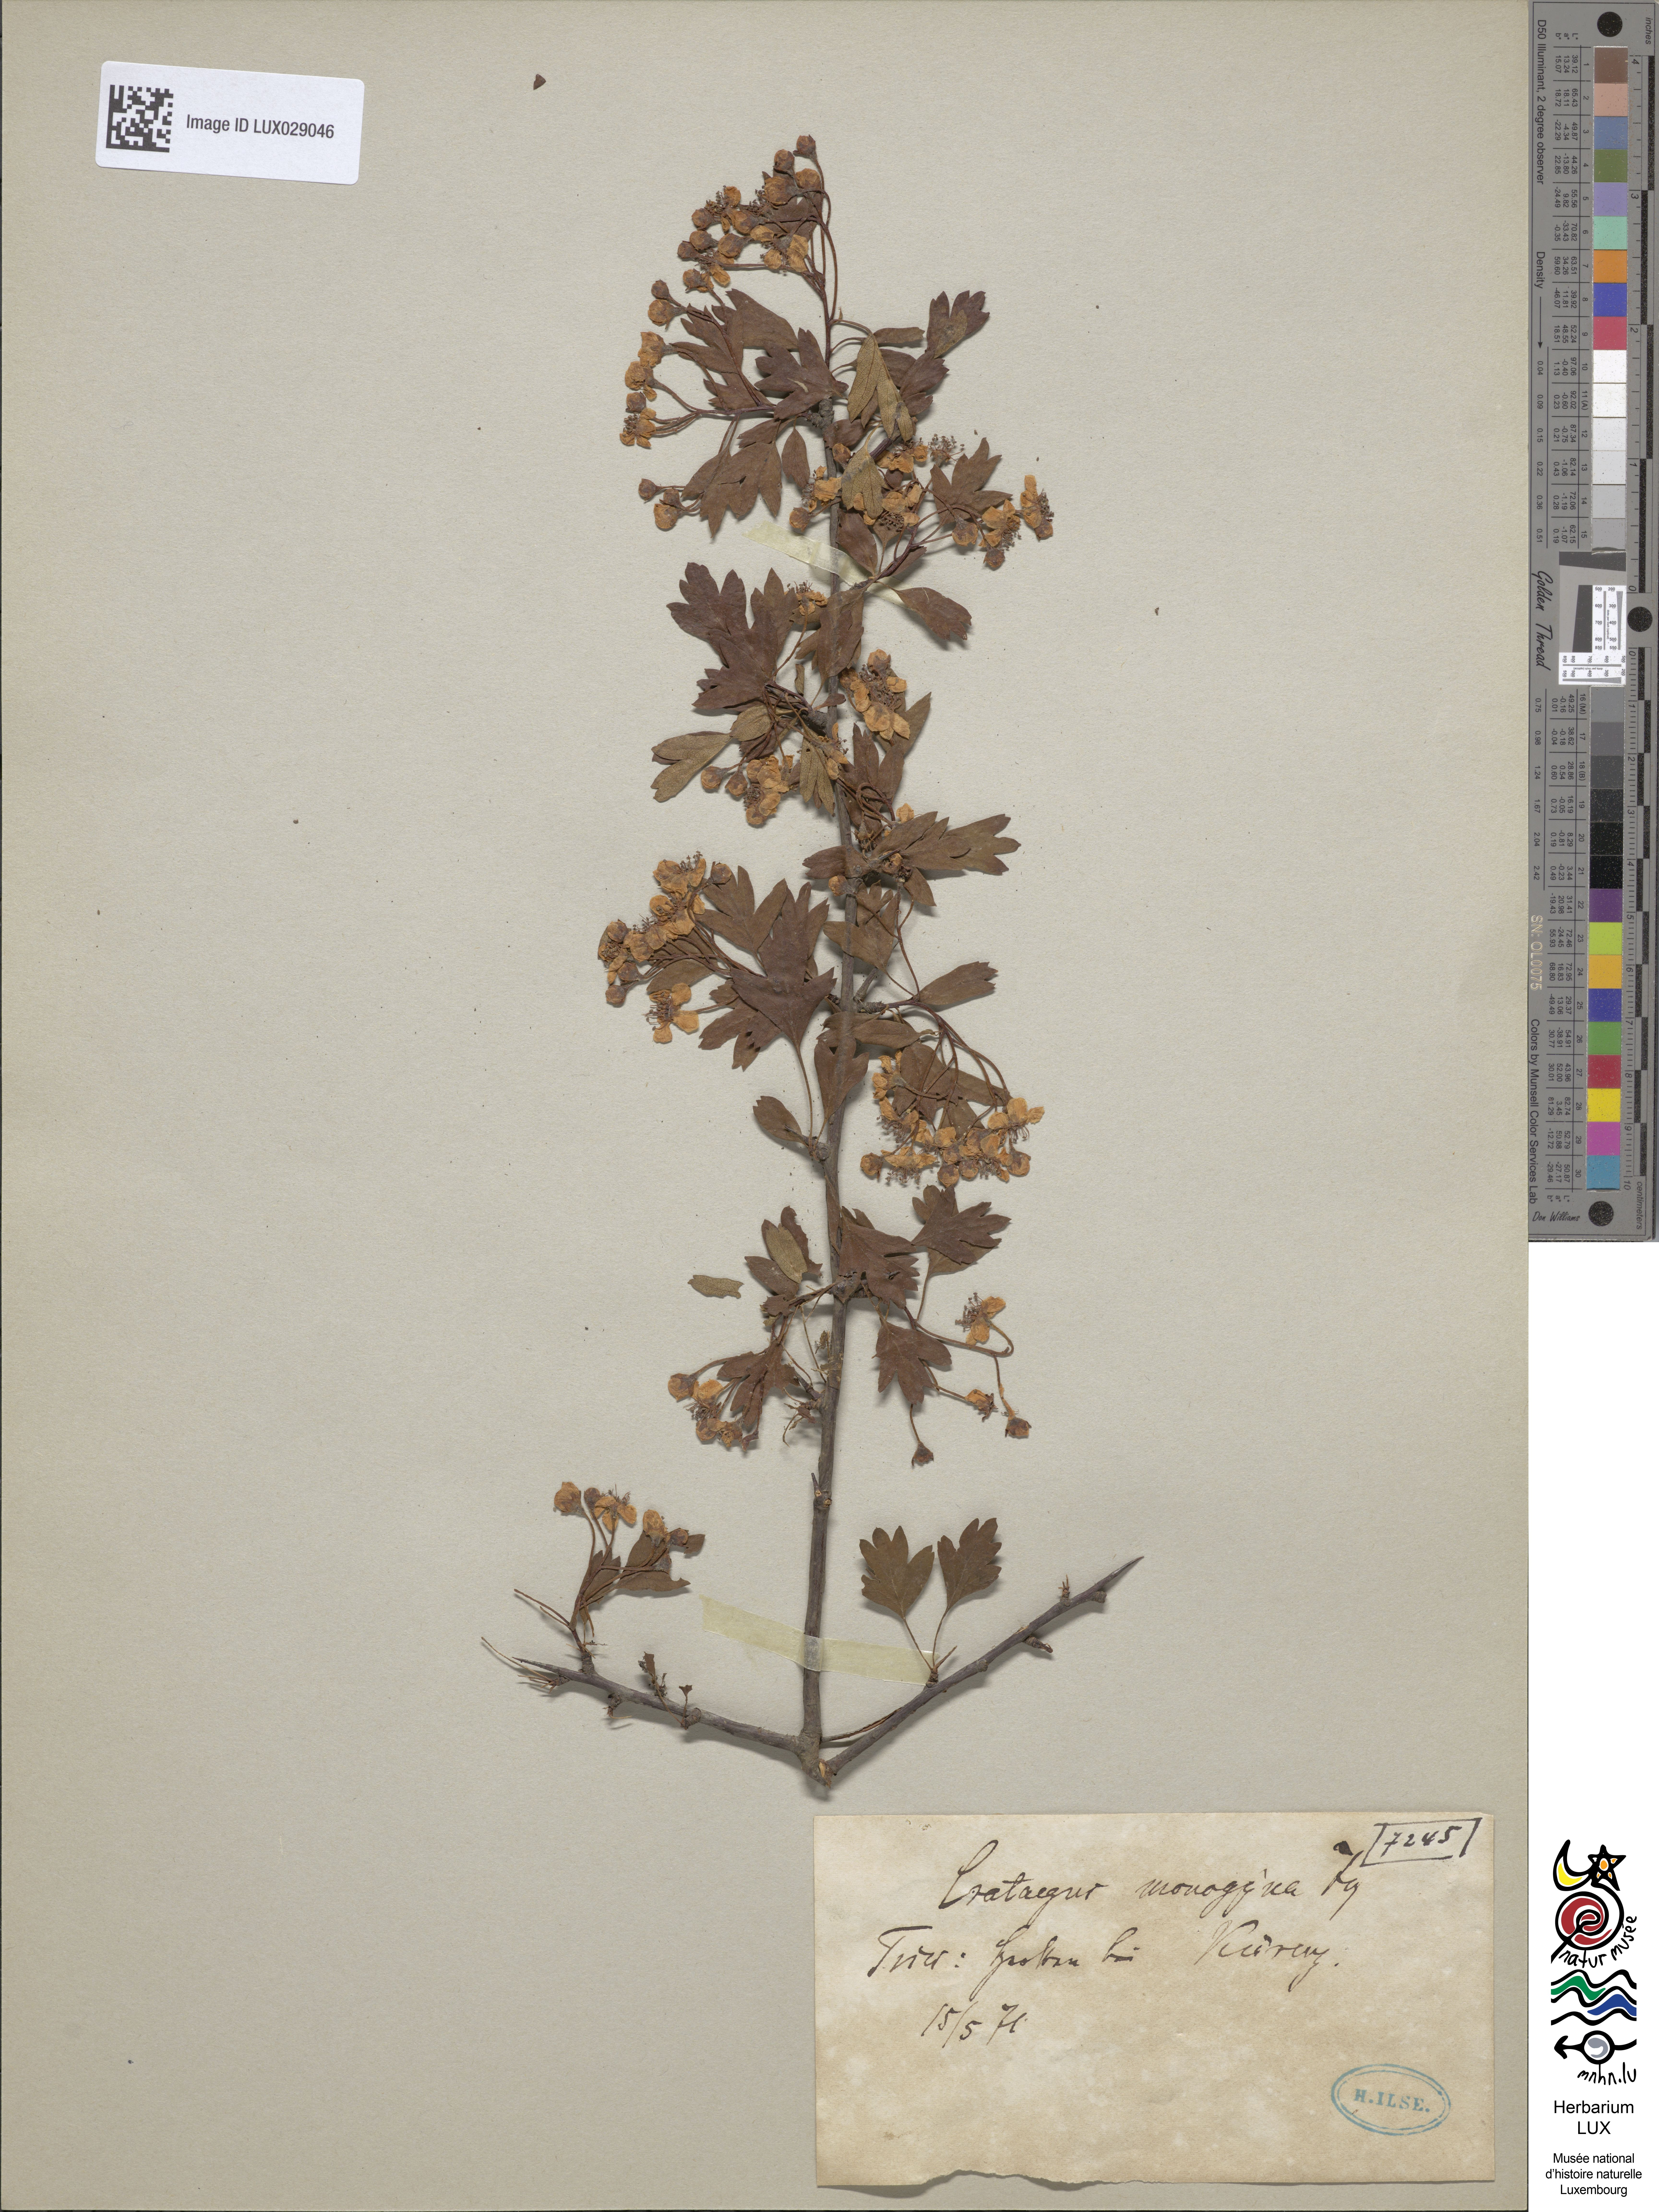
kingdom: Plantae
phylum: Tracheophyta
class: Magnoliopsida
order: Rosales
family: Rosaceae
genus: Crataegus
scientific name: Crataegus monogyna
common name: Hawthorn
